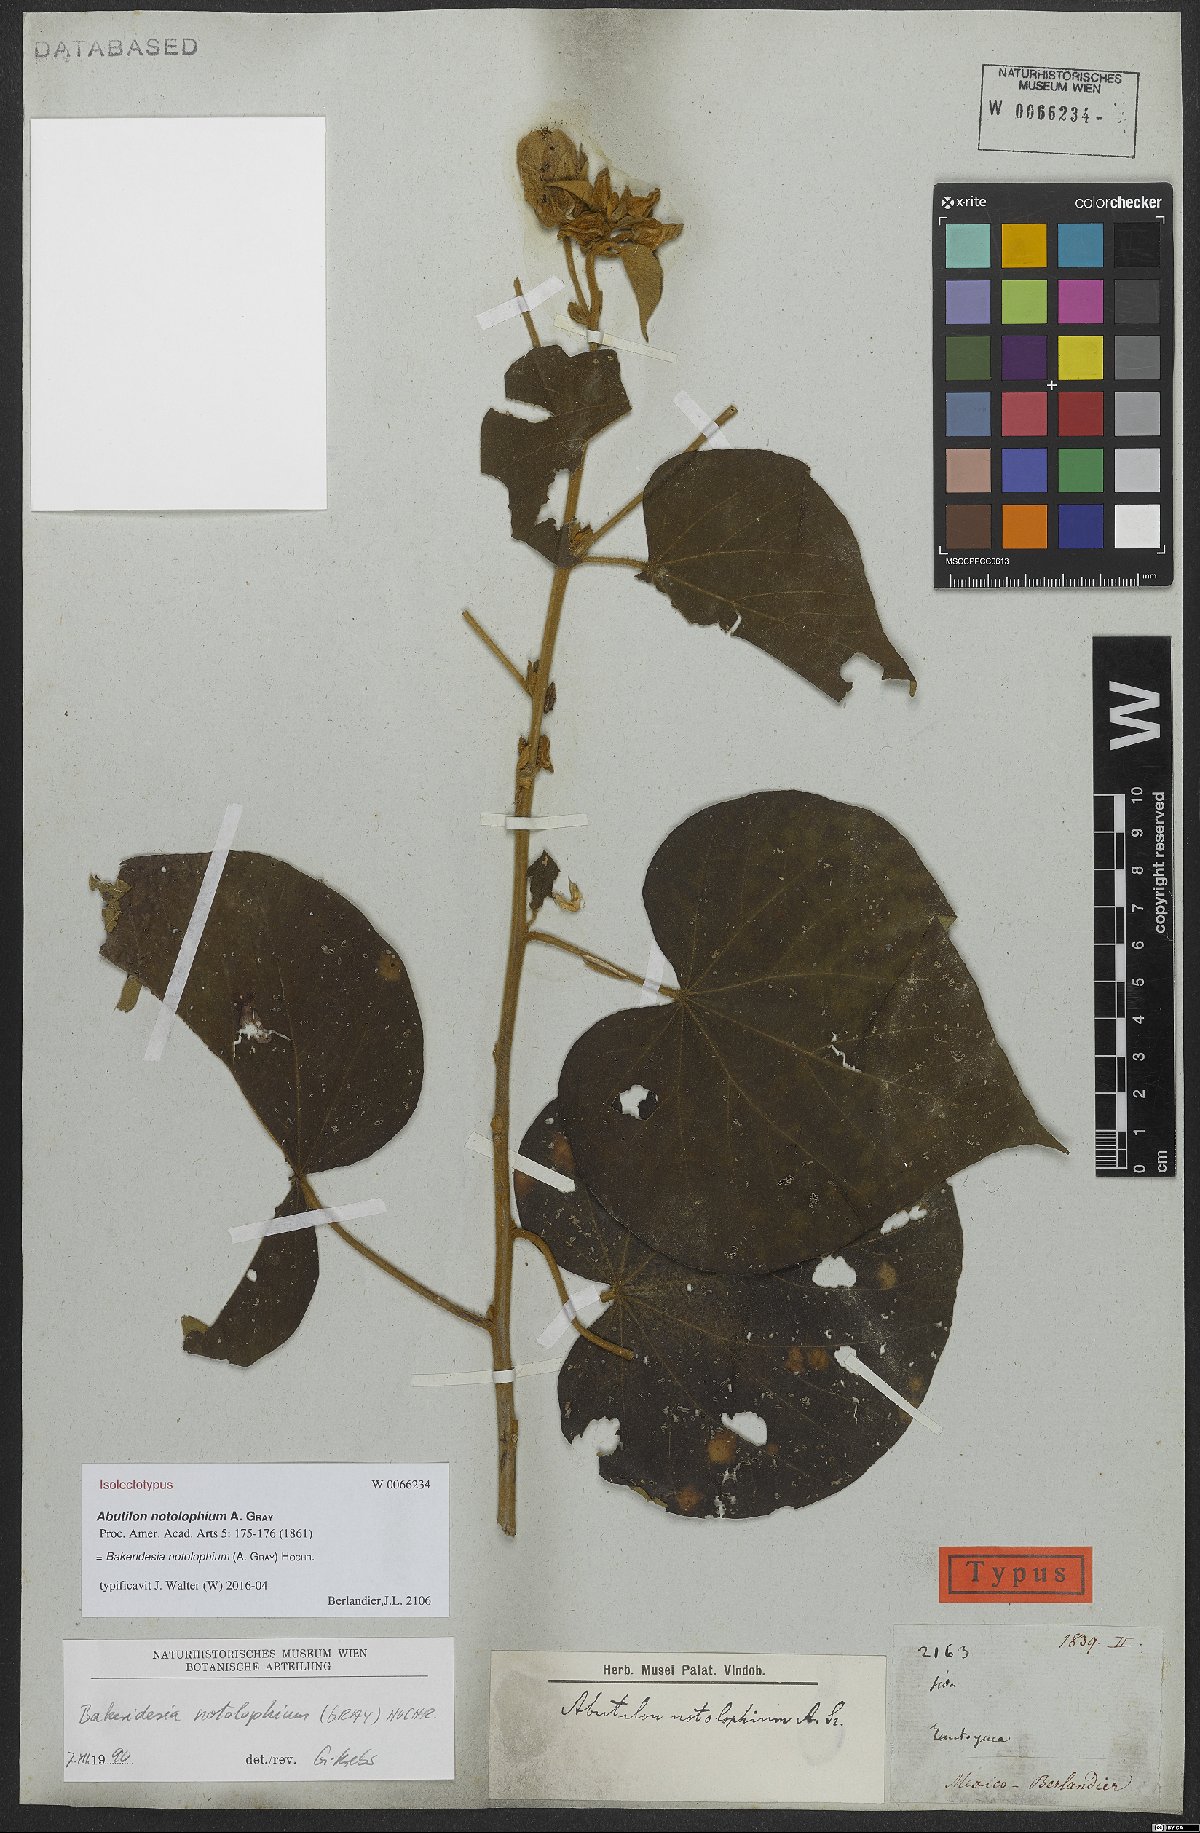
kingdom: Plantae
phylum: Tracheophyta
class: Magnoliopsida
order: Malvales
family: Malvaceae
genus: Bakeridesia
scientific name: Bakeridesia notolophium
